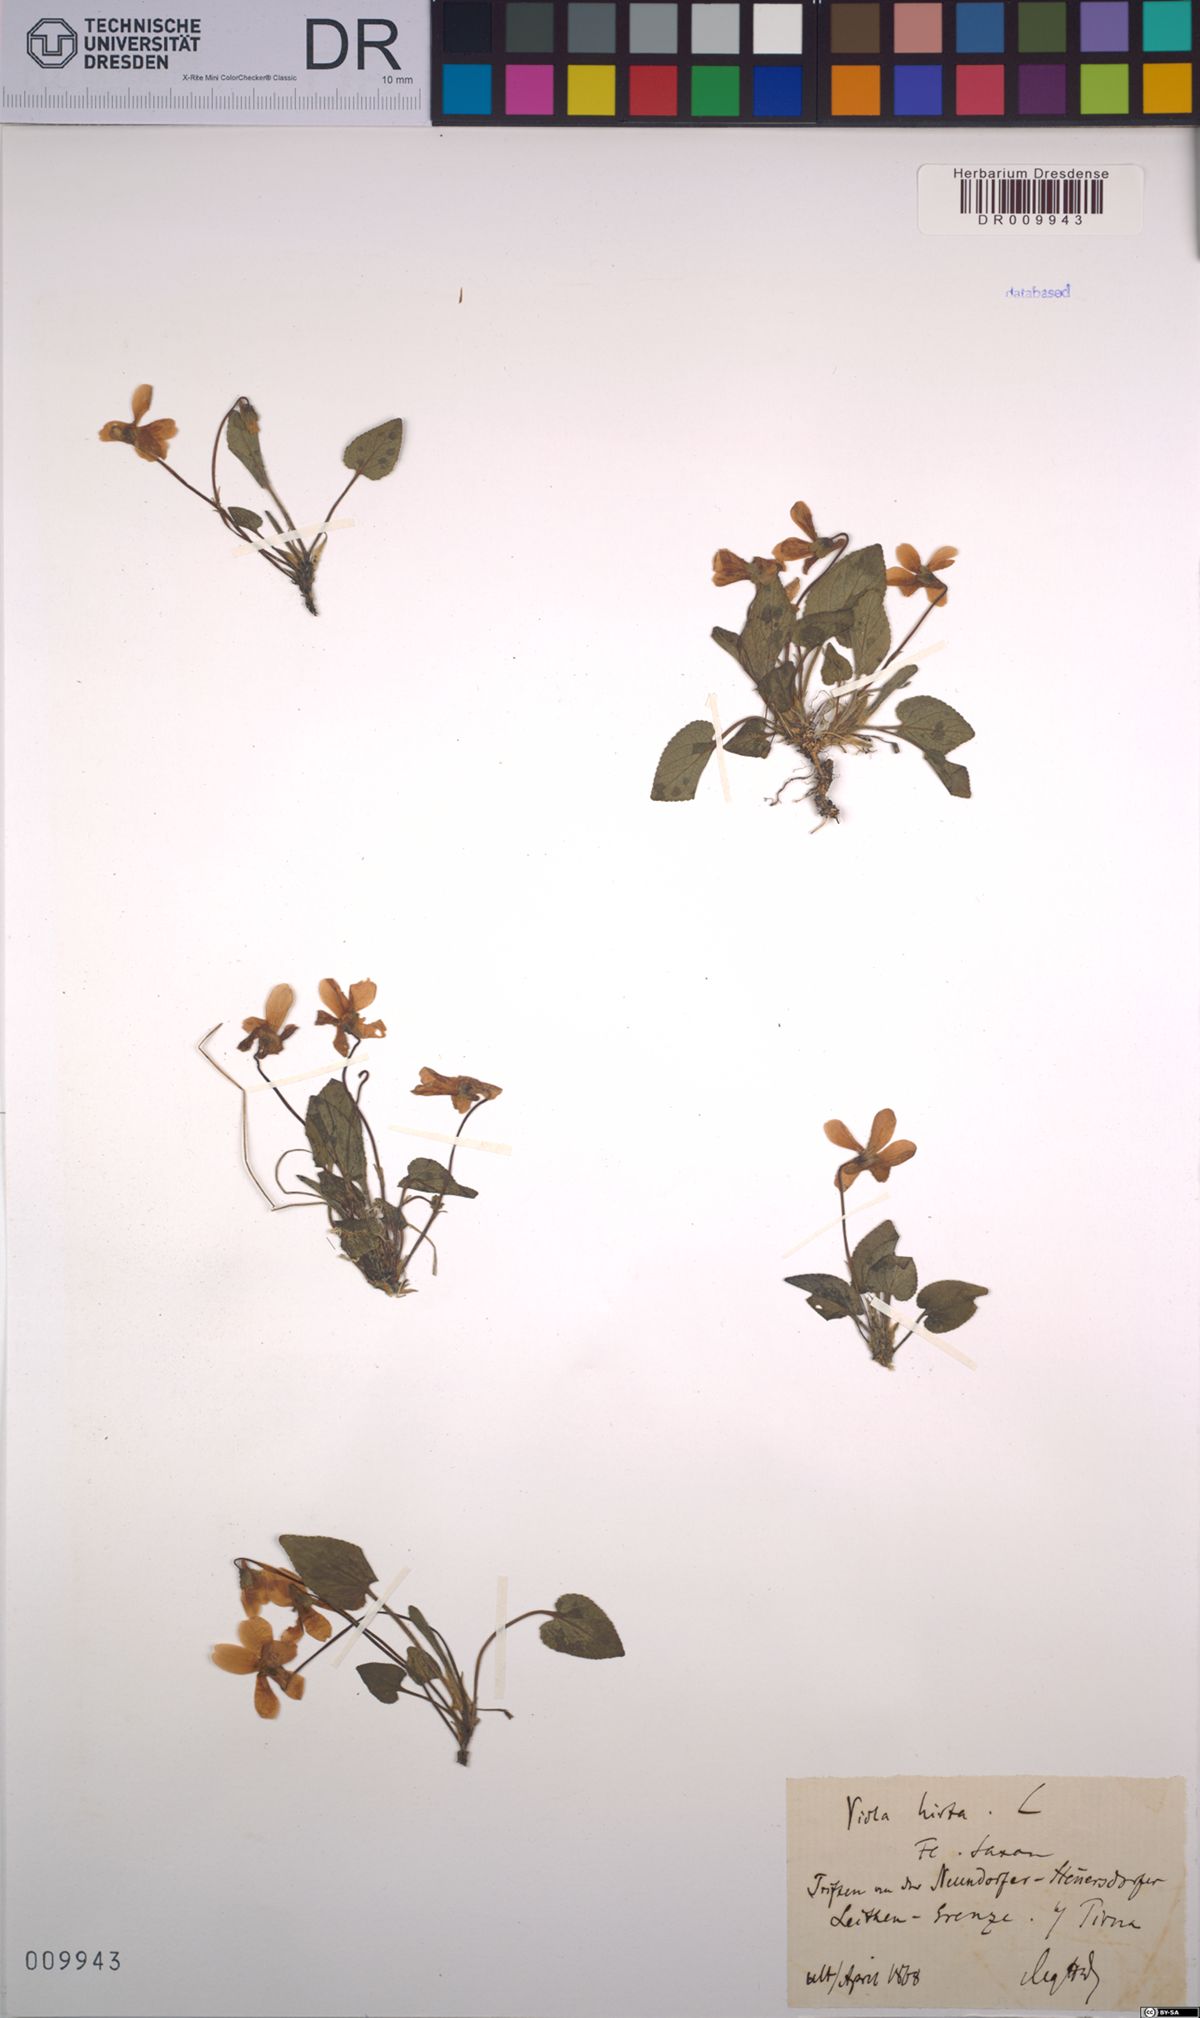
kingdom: Plantae
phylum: Tracheophyta
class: Magnoliopsida
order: Malpighiales
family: Violaceae
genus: Viola
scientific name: Viola hirta
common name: Hairy violet
